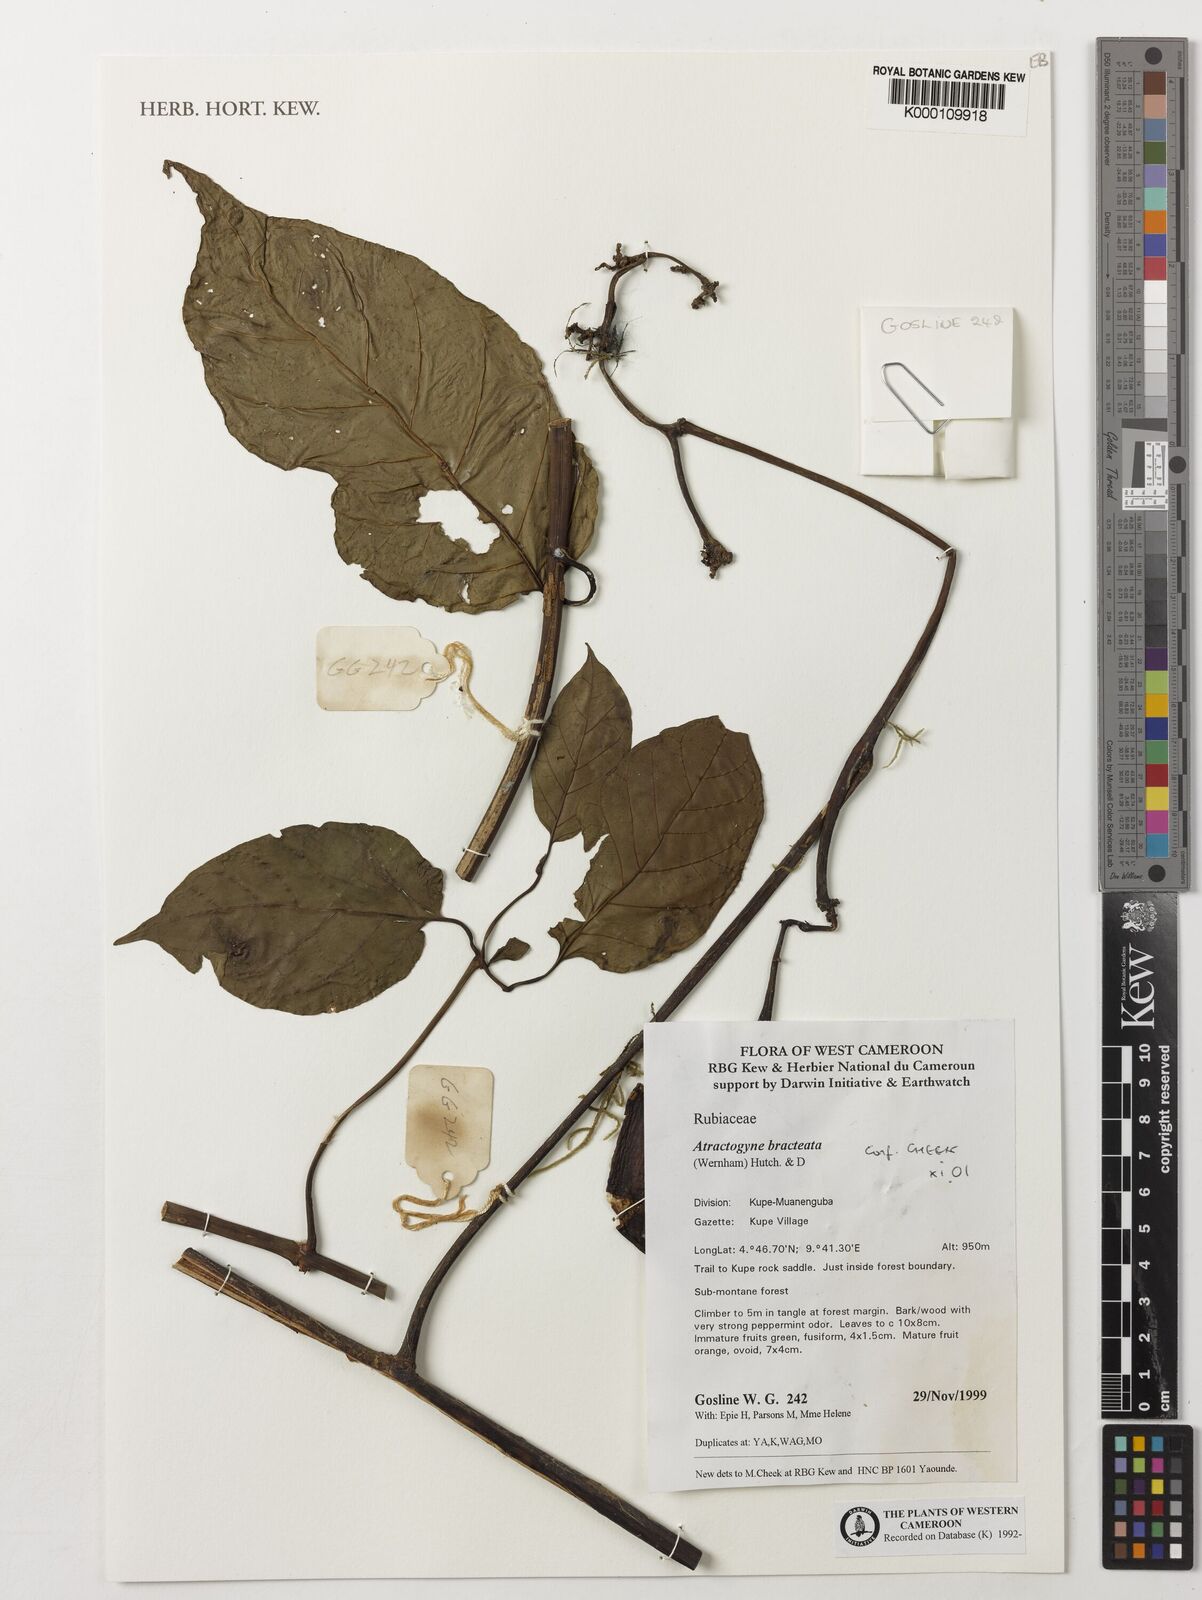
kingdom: Plantae
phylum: Tracheophyta
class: Magnoliopsida
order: Gentianales
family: Rubiaceae
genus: Atractogyne
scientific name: Atractogyne bracteata
